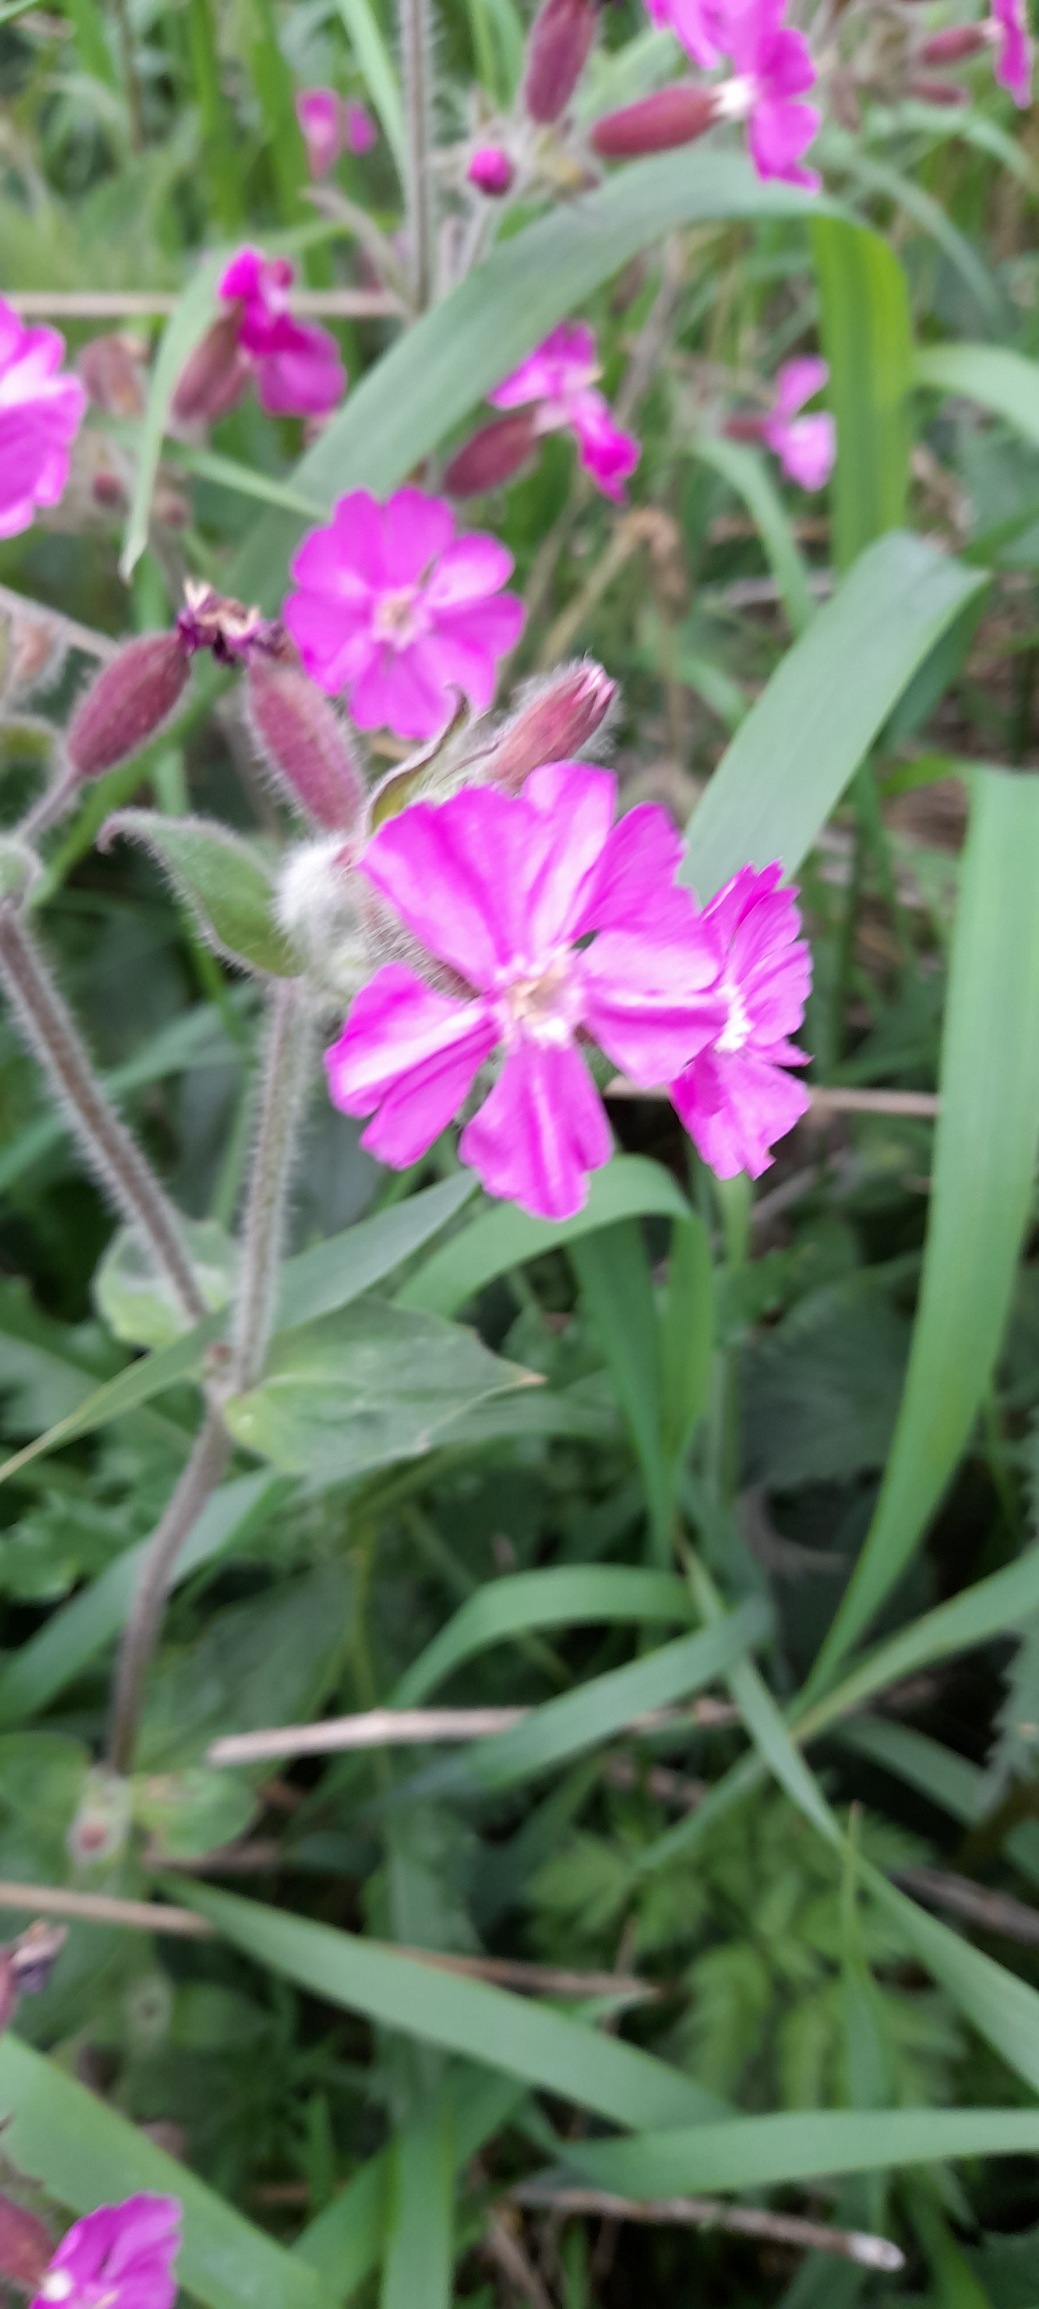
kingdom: Plantae
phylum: Tracheophyta
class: Magnoliopsida
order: Caryophyllales
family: Caryophyllaceae
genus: Silene
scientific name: Silene dioica
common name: Dagpragtstjerne
